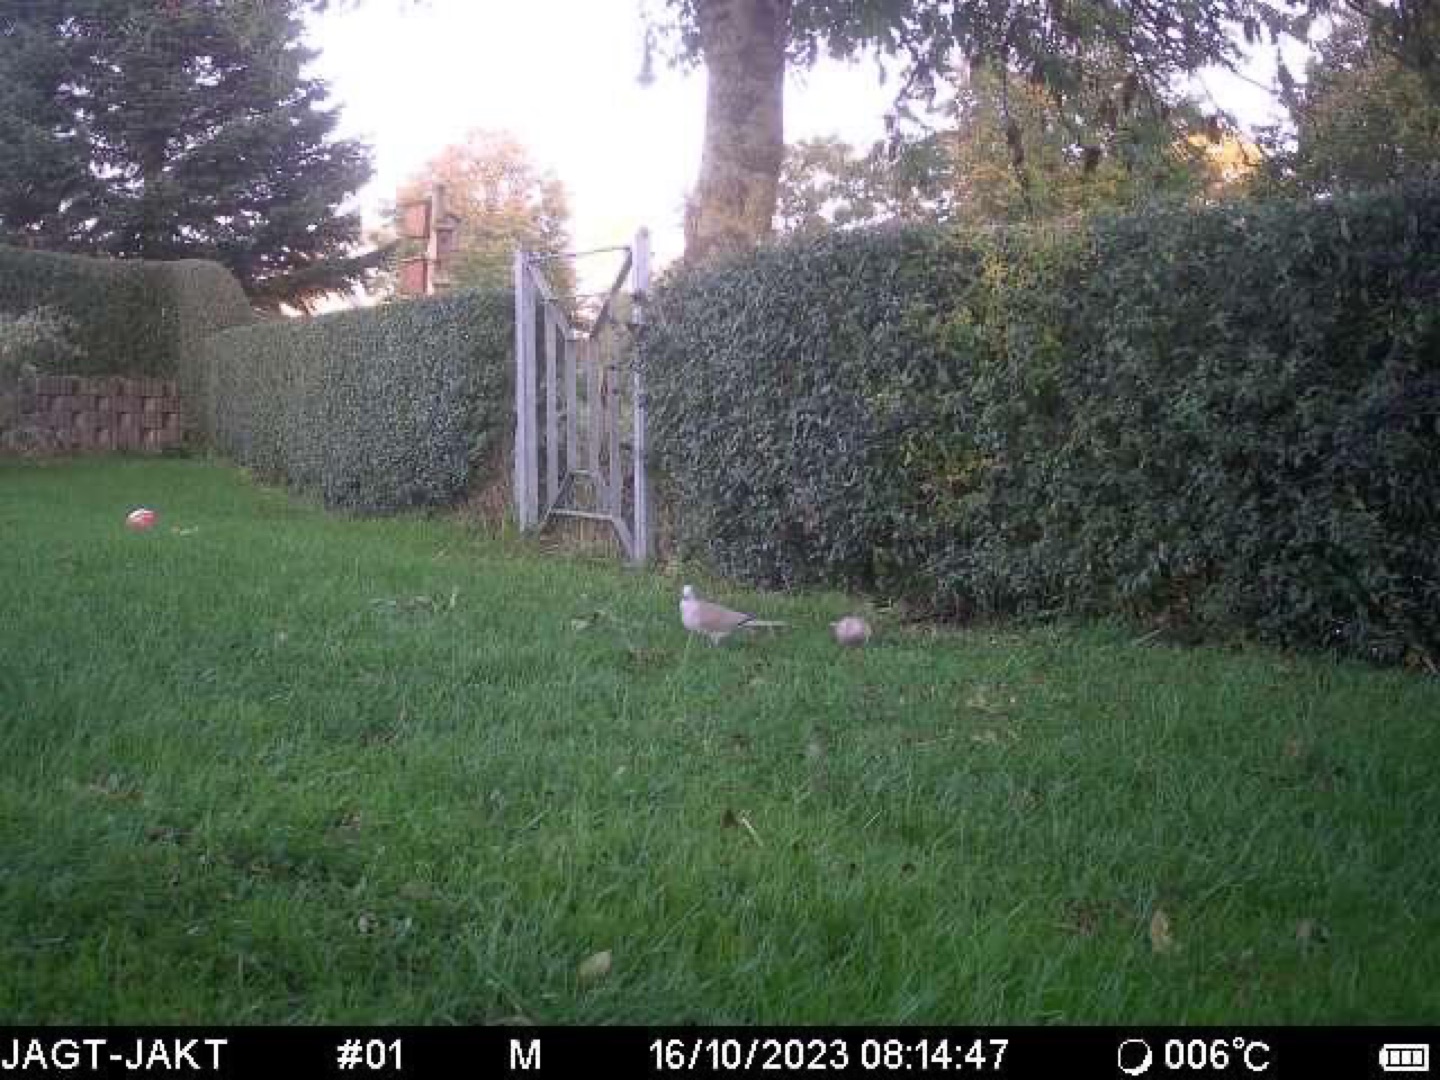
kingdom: Animalia
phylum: Chordata
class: Aves
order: Columbiformes
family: Columbidae
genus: Streptopelia
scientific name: Streptopelia decaocto
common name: Tyrkerdue
